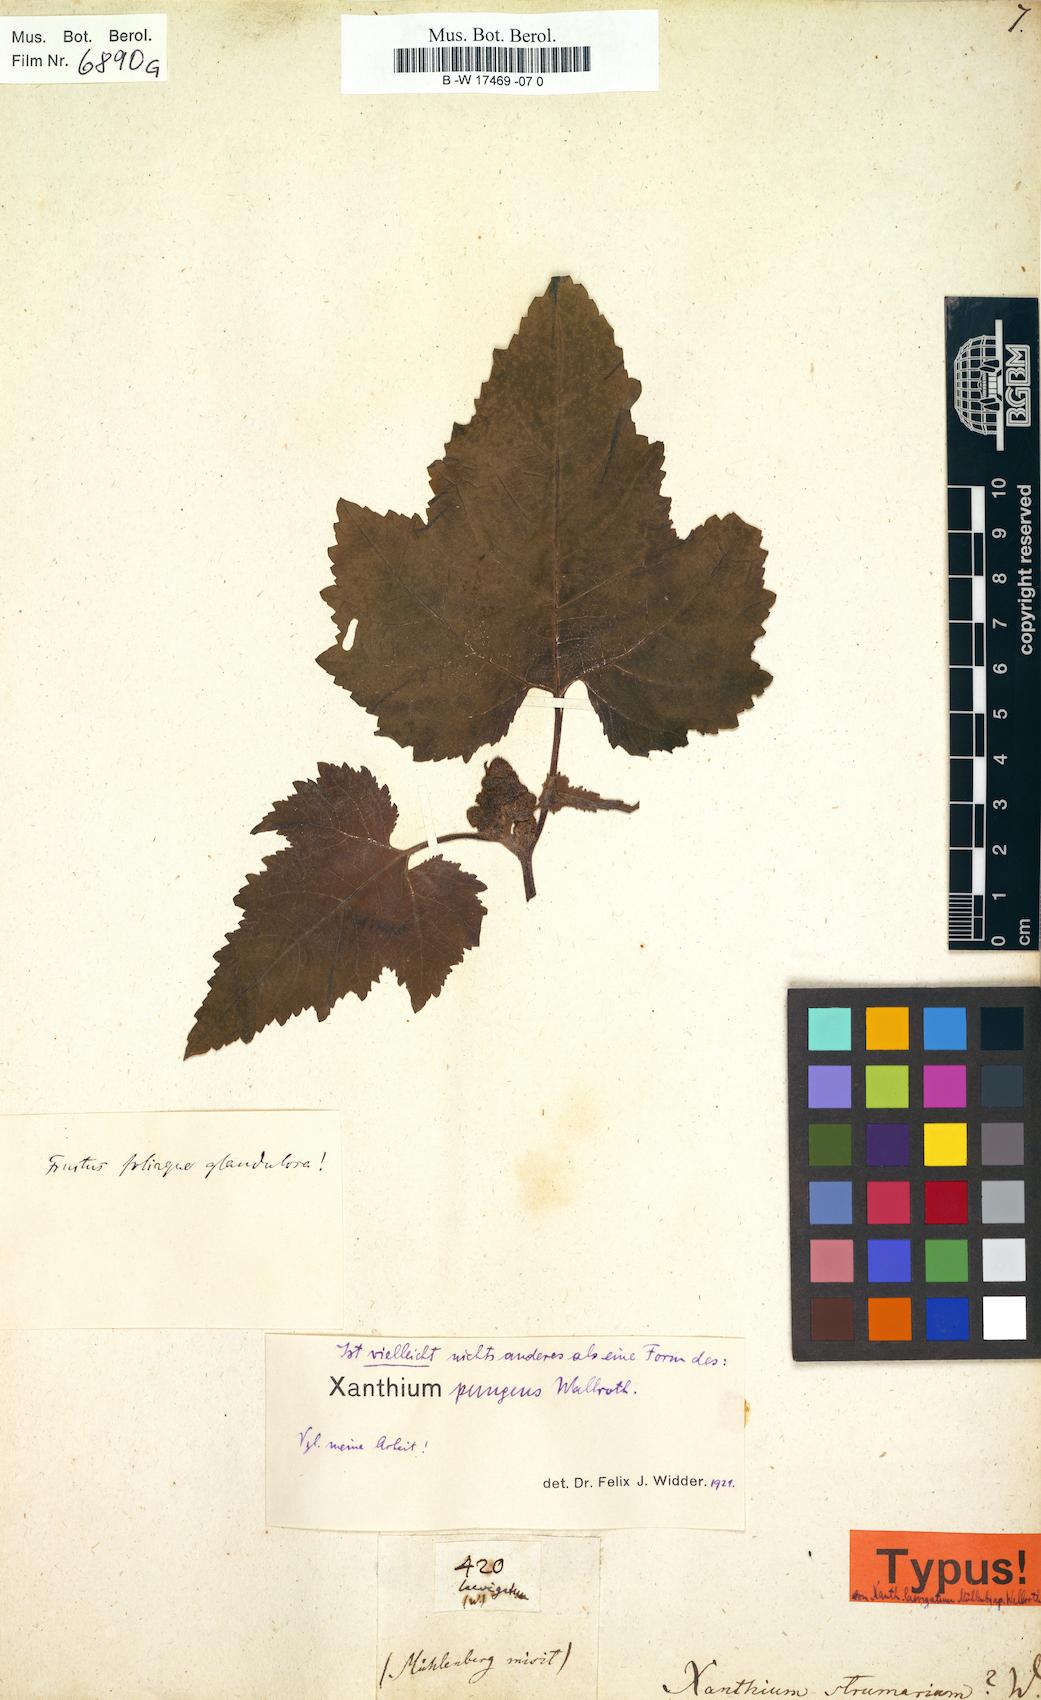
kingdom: Plantae
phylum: Tracheophyta
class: Magnoliopsida
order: Asterales
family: Asteraceae
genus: Xanthium
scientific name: Xanthium strumarium
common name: Rough cocklebur
